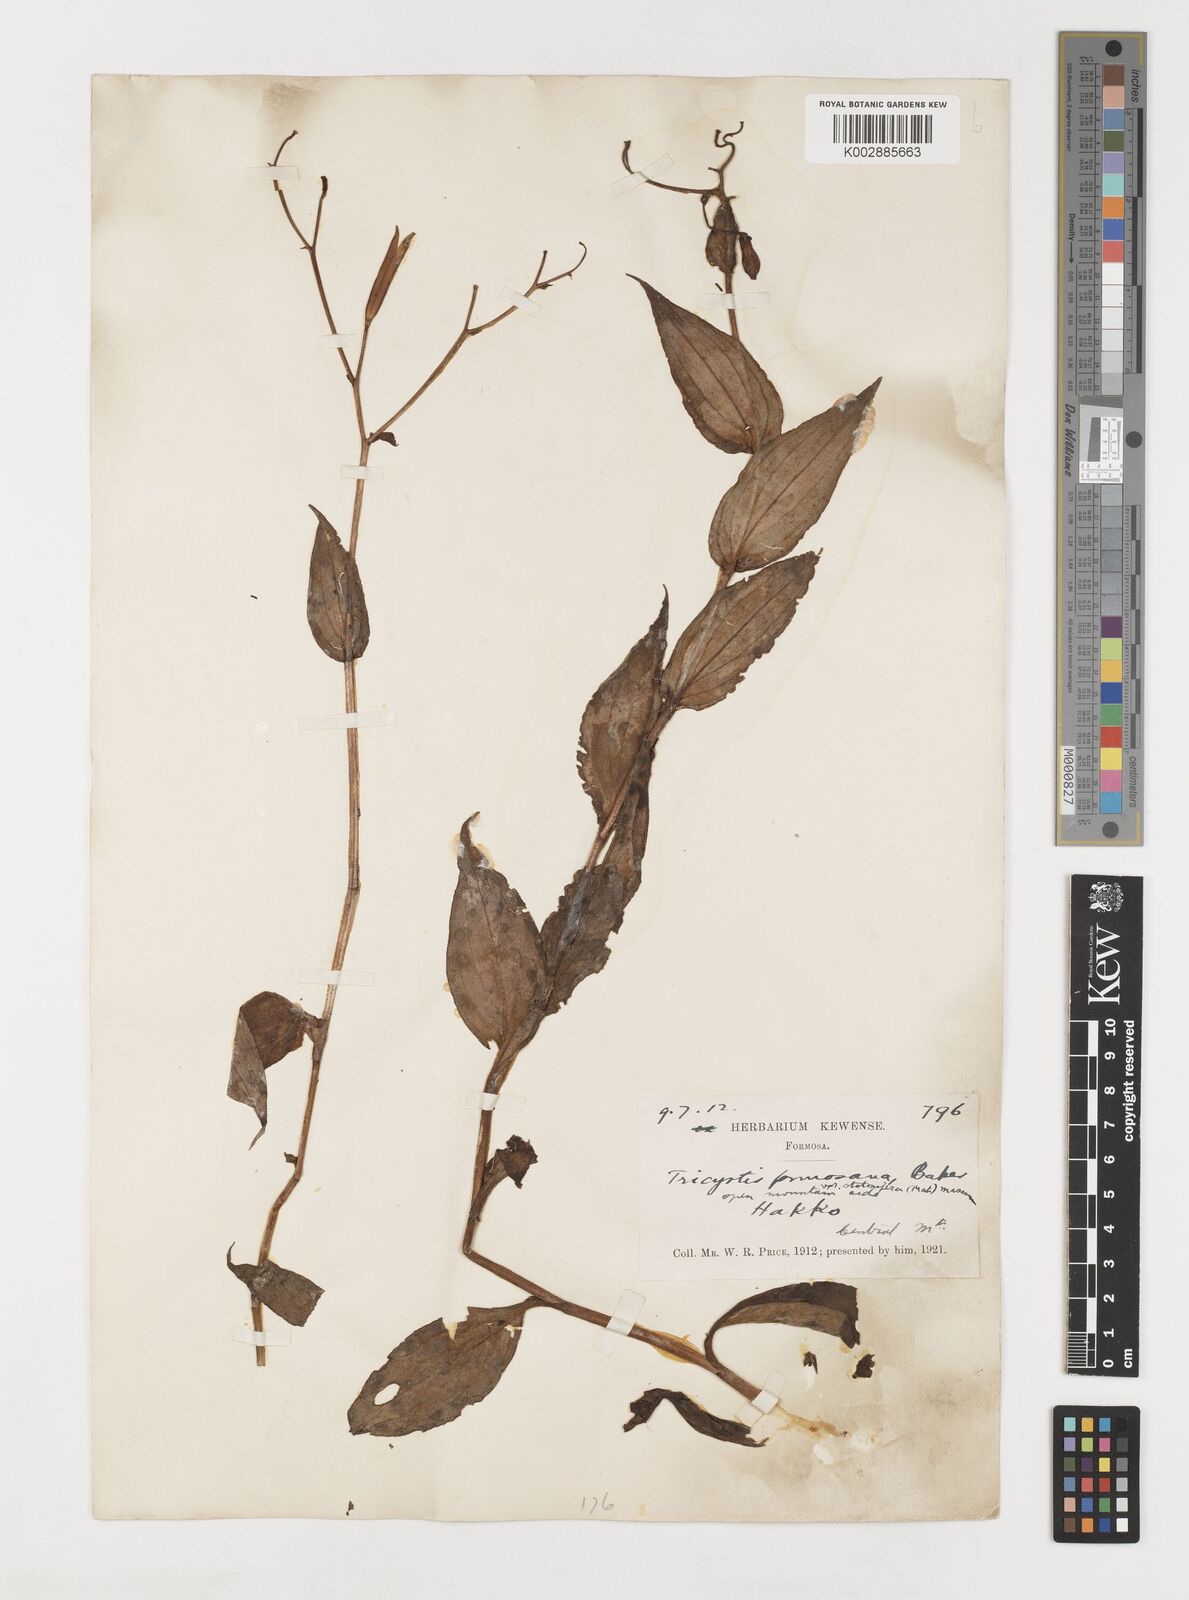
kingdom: Plantae
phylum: Tracheophyta
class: Liliopsida
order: Liliales
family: Liliaceae
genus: Tricyrtis
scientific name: Tricyrtis formosana
